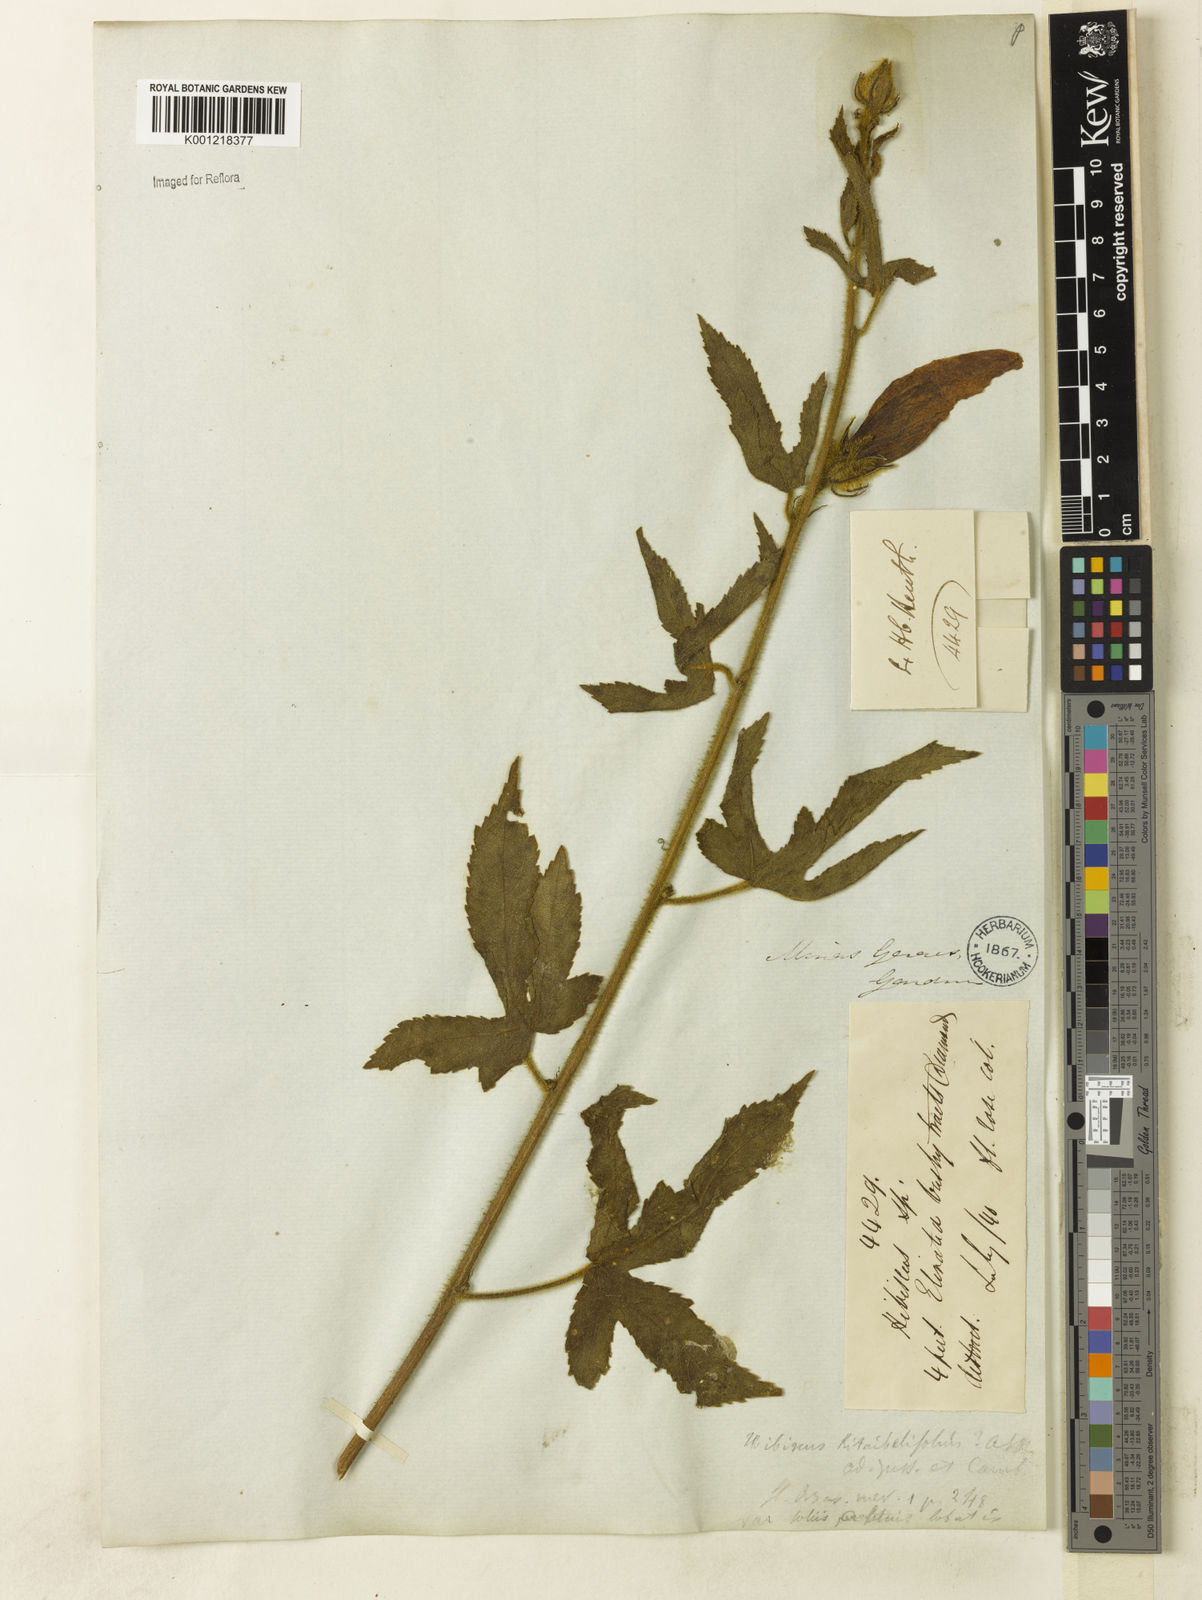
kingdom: Plantae
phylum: Tracheophyta
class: Magnoliopsida
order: Malvales
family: Malvaceae
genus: Hibiscus
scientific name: Hibiscus kitaibelifolius
